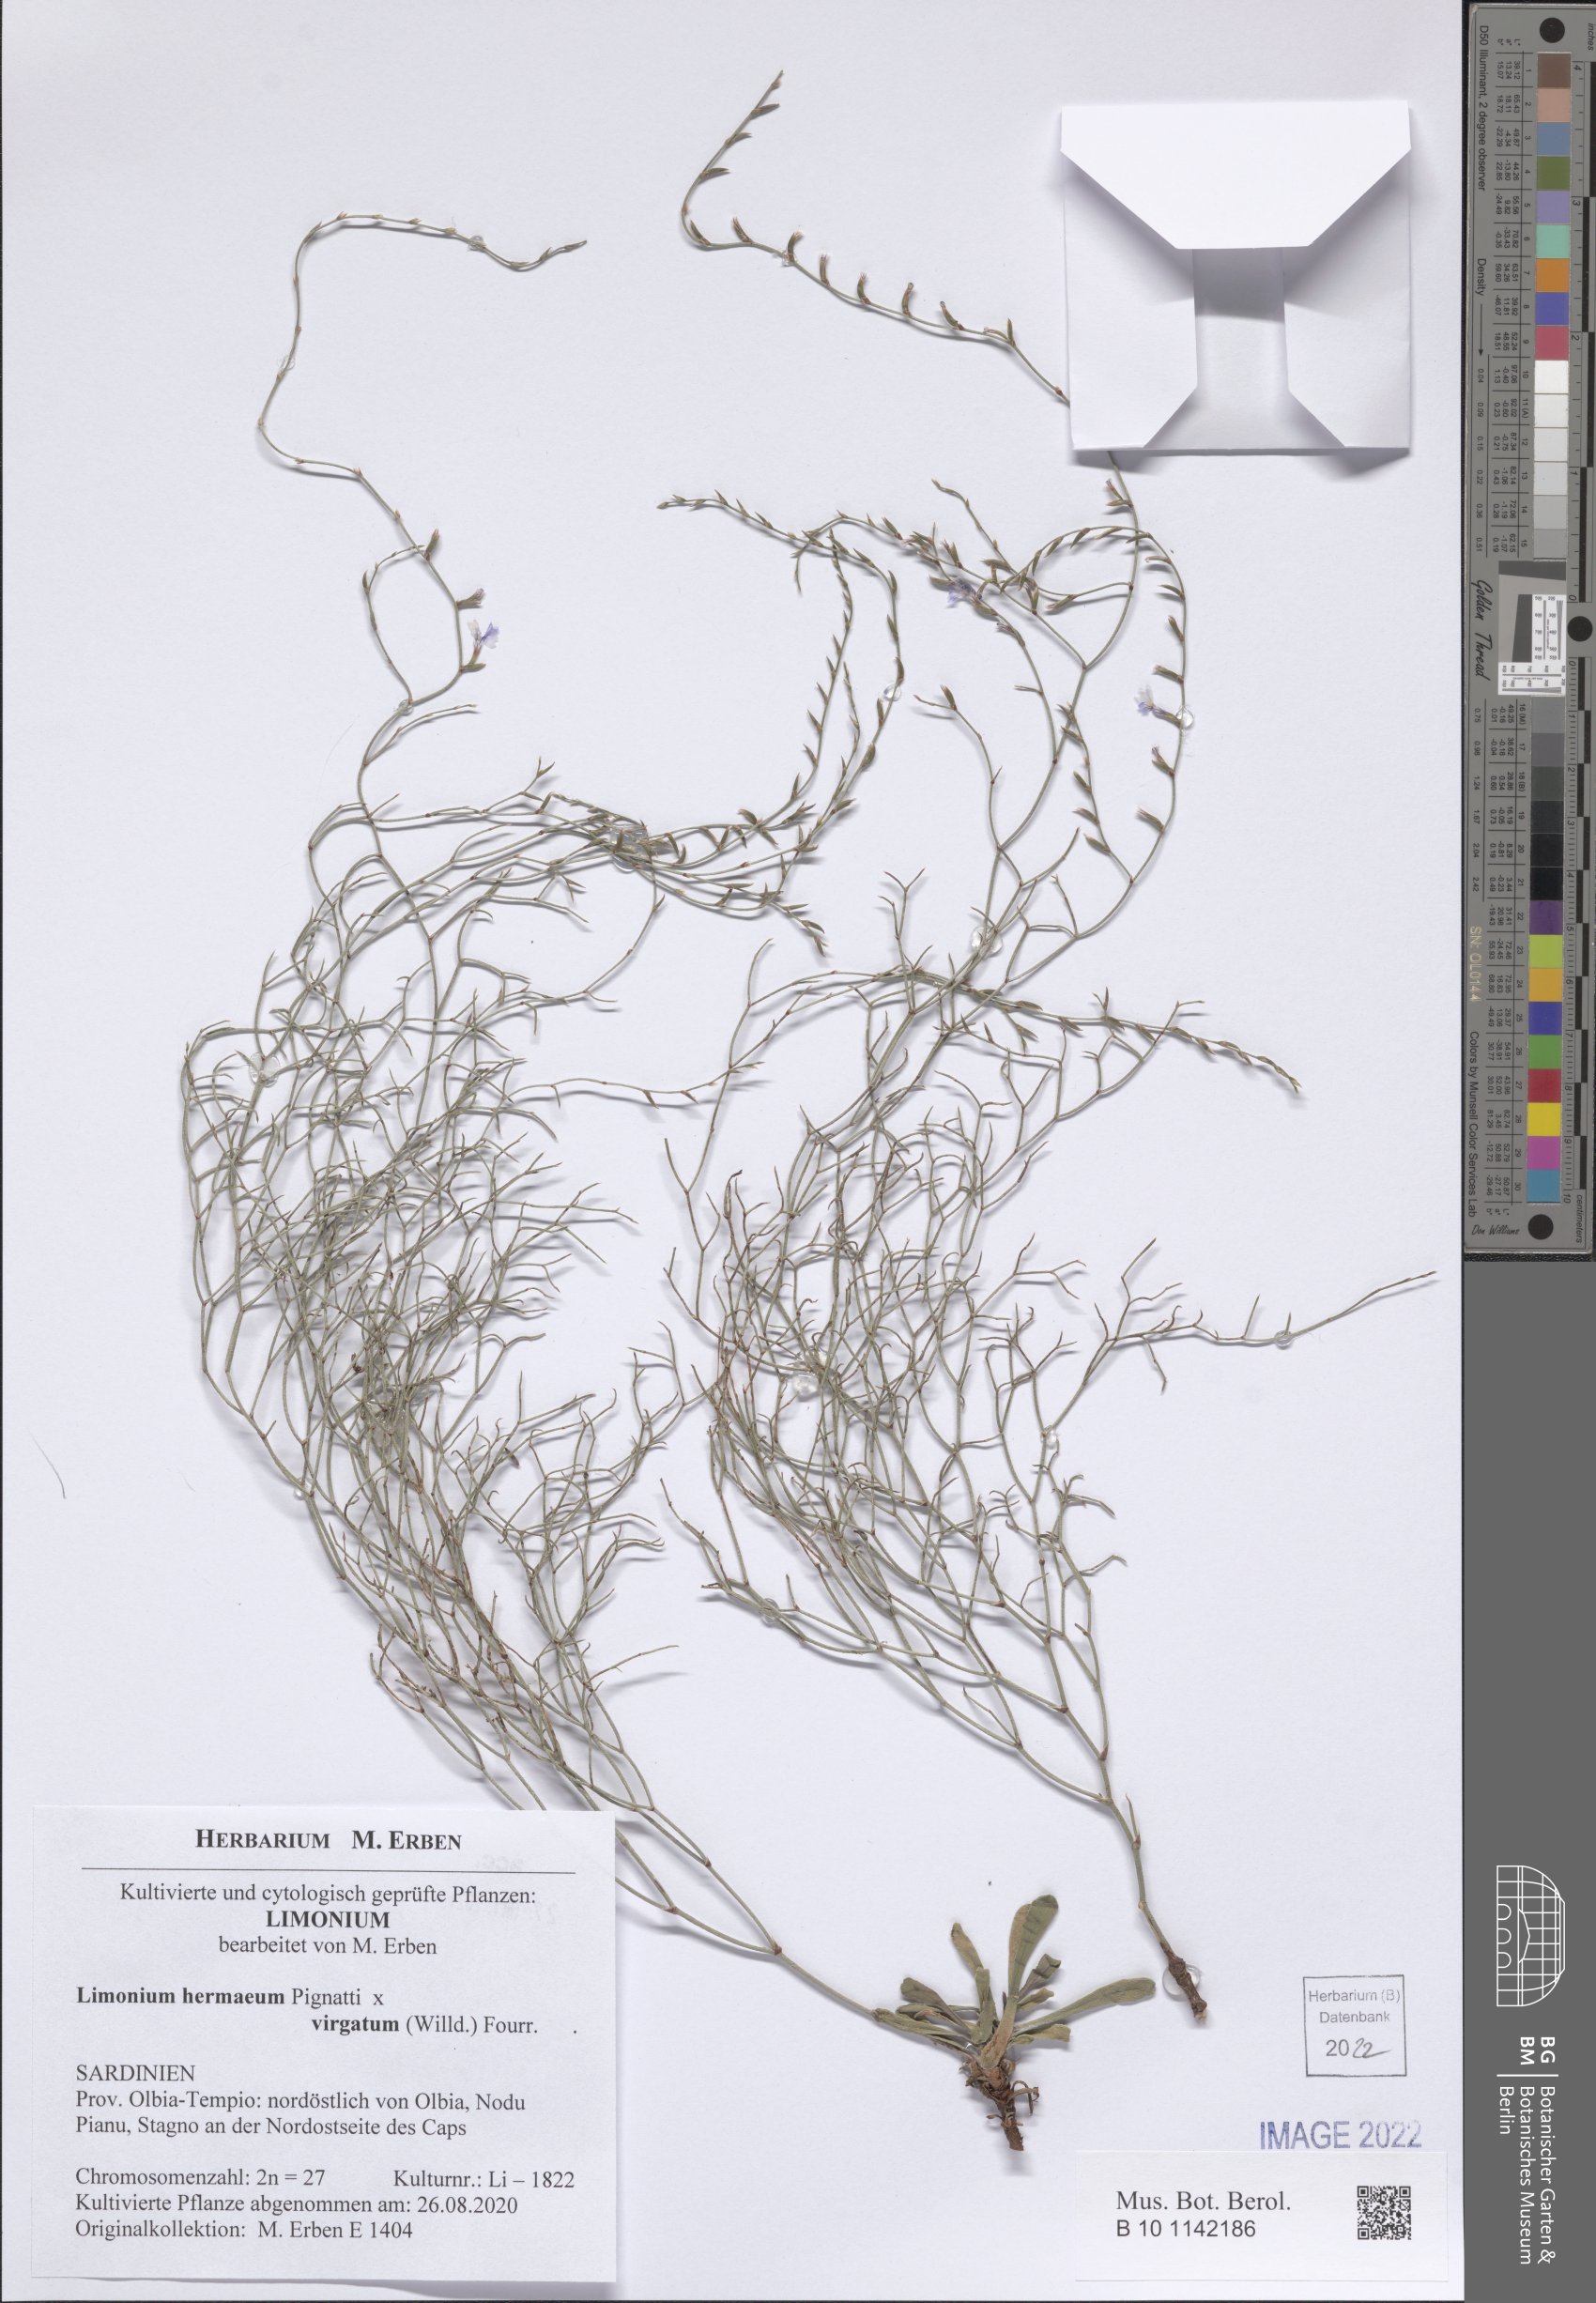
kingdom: Plantae
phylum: Tracheophyta
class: Magnoliopsida
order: Caryophyllales
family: Plumbaginaceae
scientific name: Plumbaginaceae
